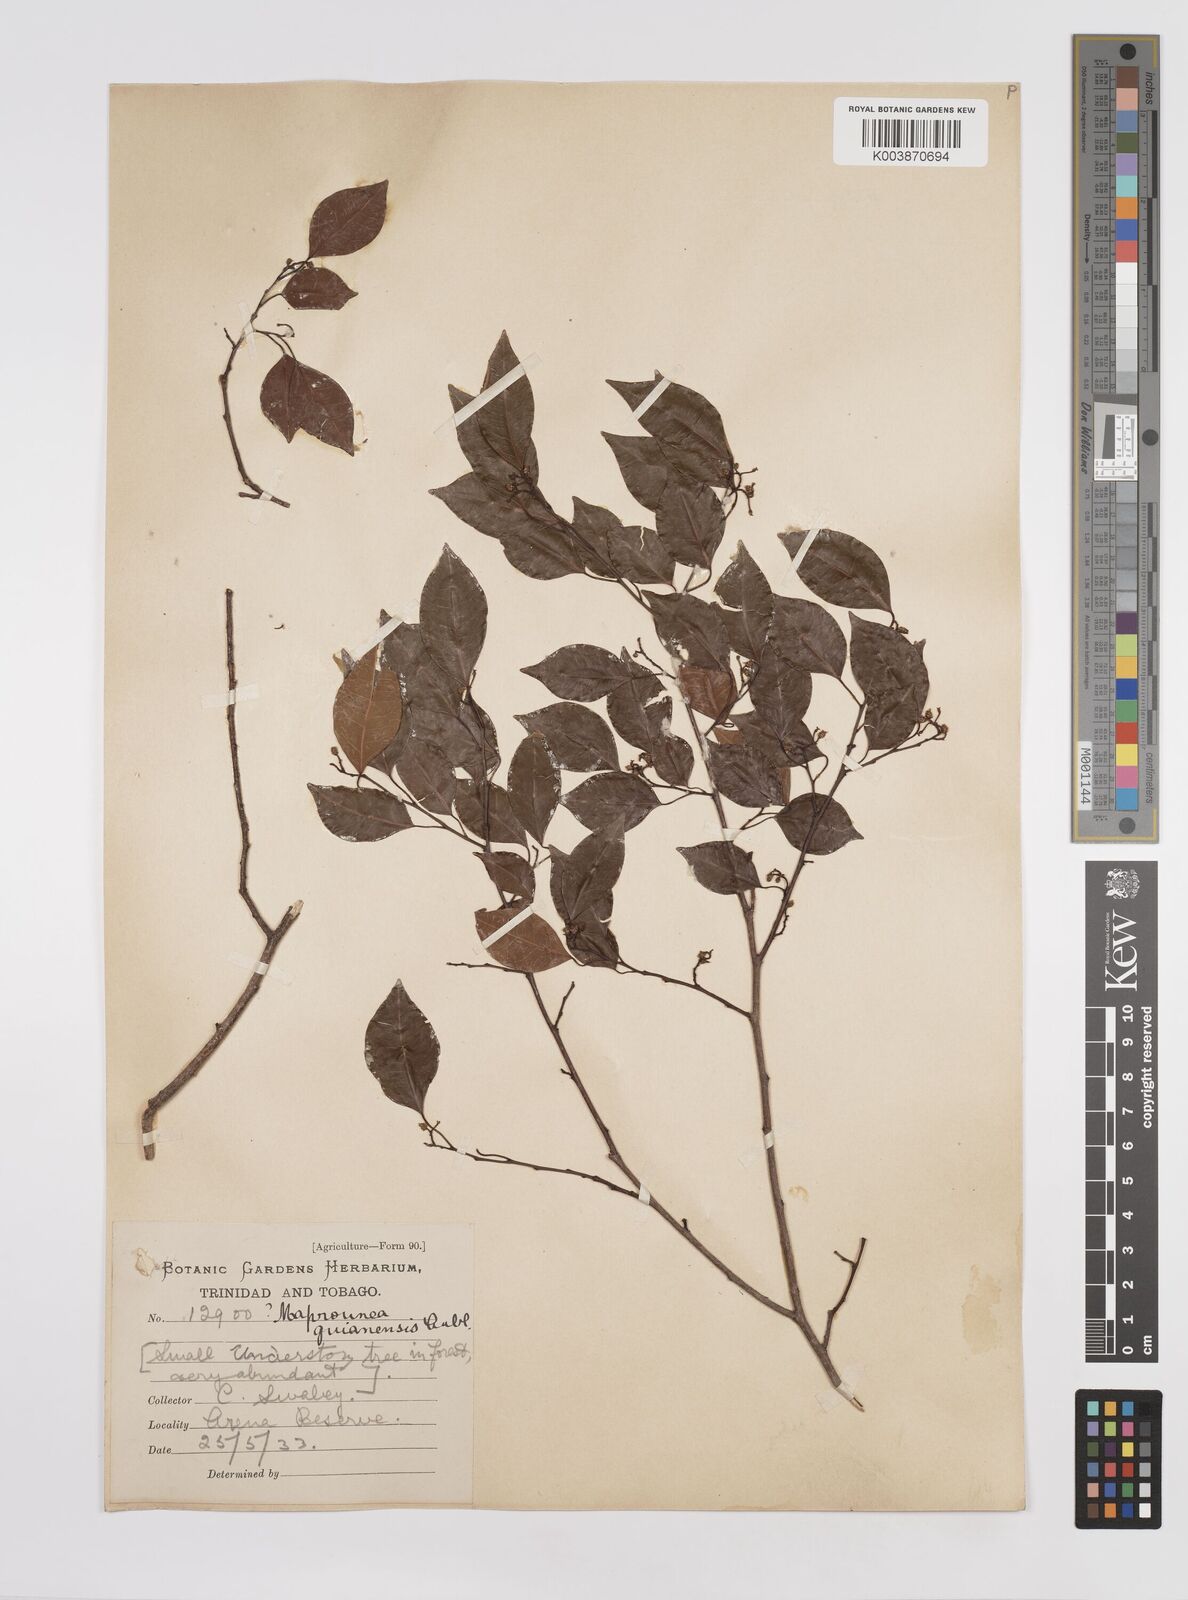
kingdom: Plantae
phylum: Tracheophyta
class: Magnoliopsida
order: Malpighiales
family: Euphorbiaceae
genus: Maprounea
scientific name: Maprounea guianensis
